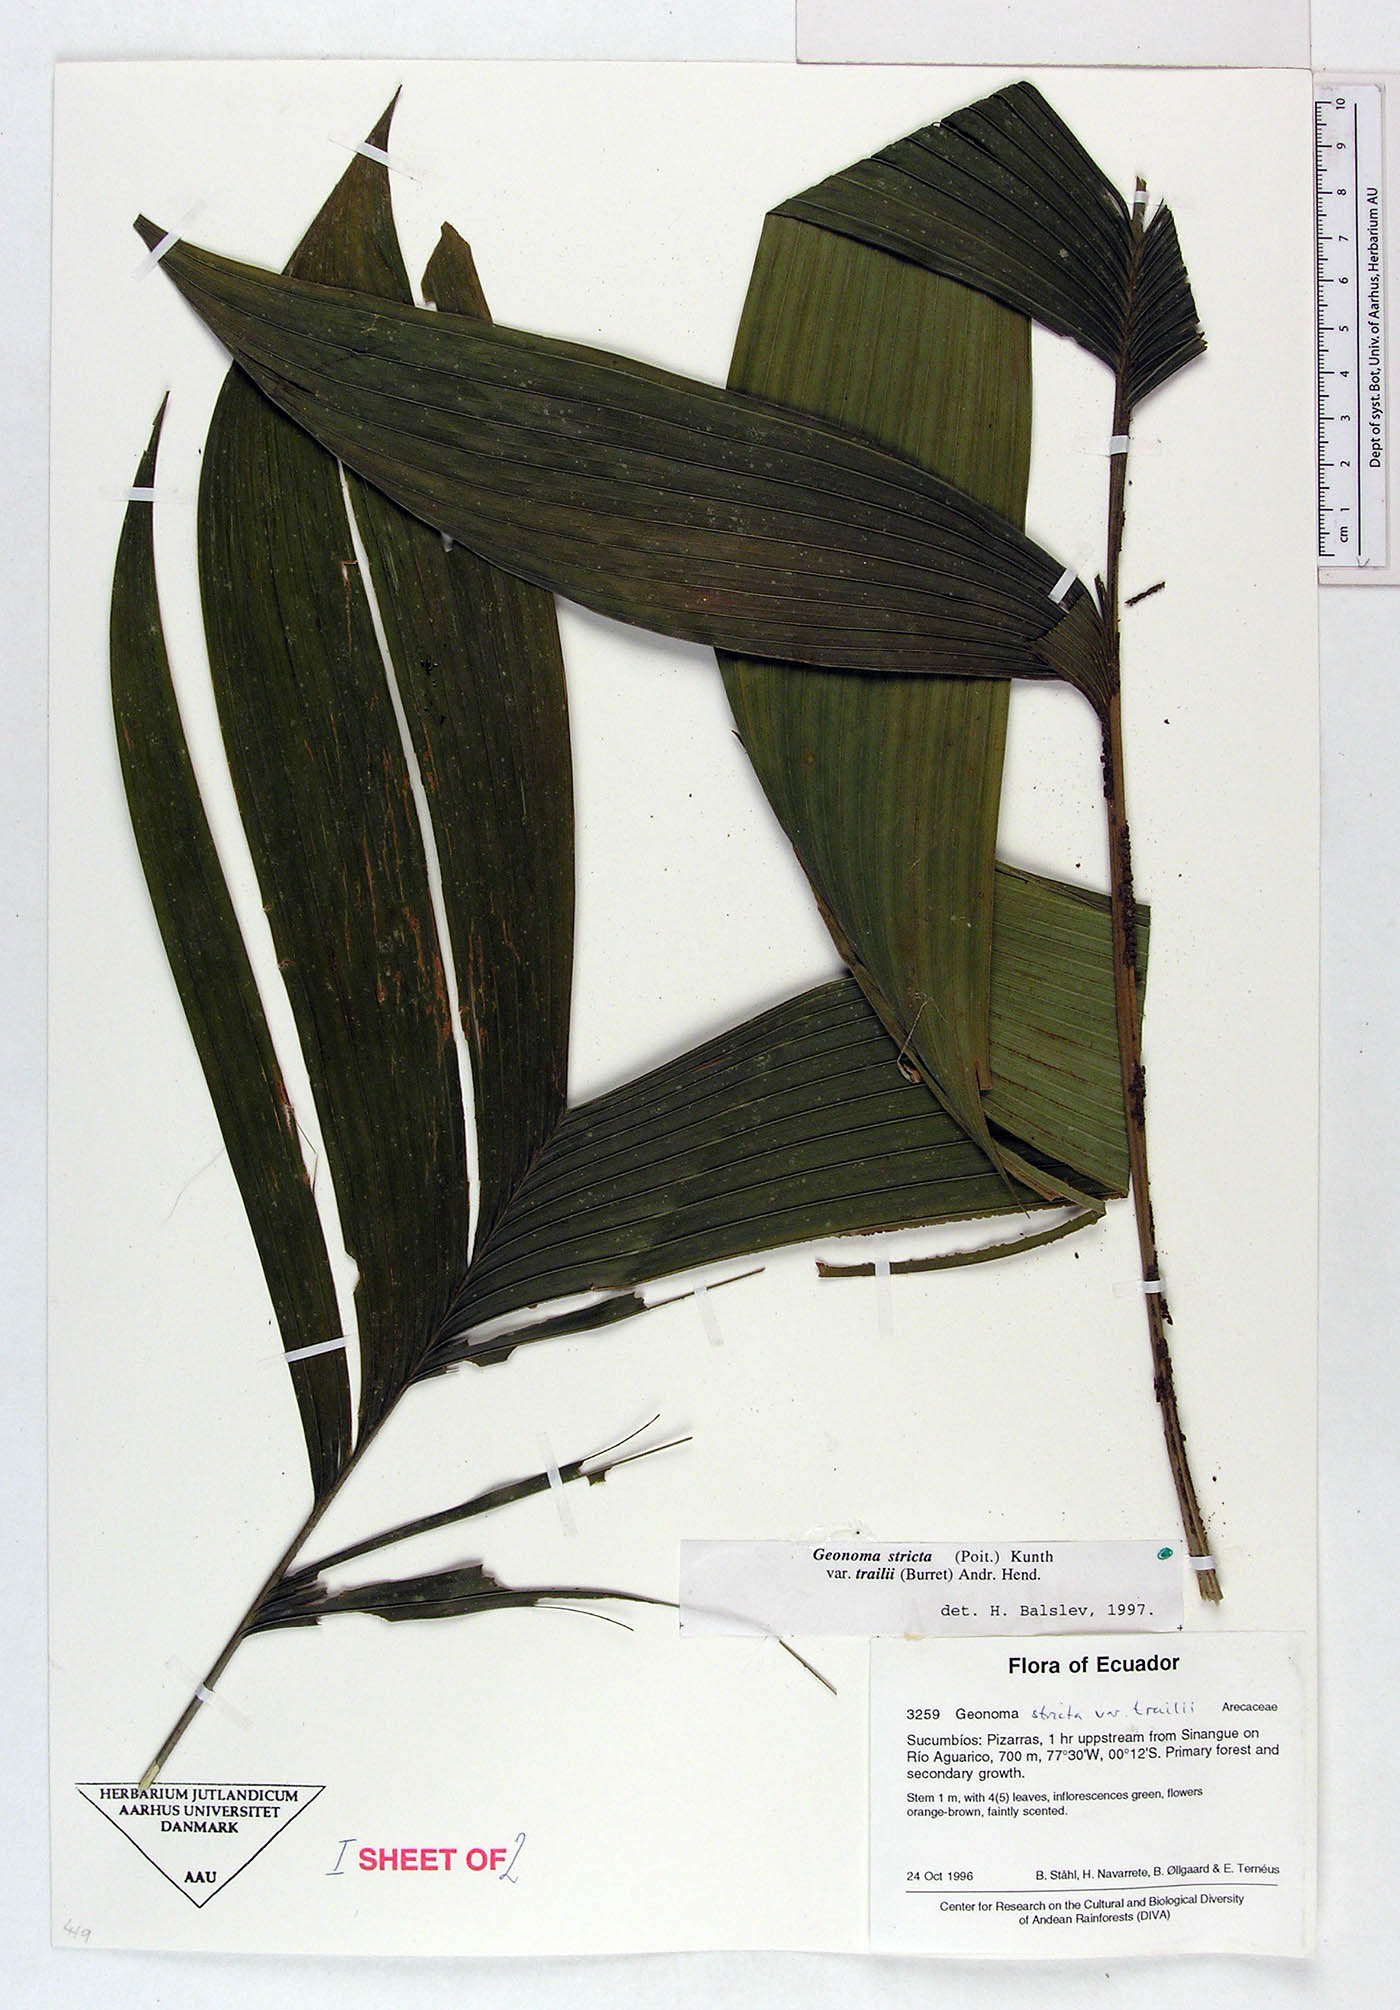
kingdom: Plantae
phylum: Tracheophyta
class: Liliopsida
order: Arecales
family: Arecaceae
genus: Geonoma
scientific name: Geonoma stricta
